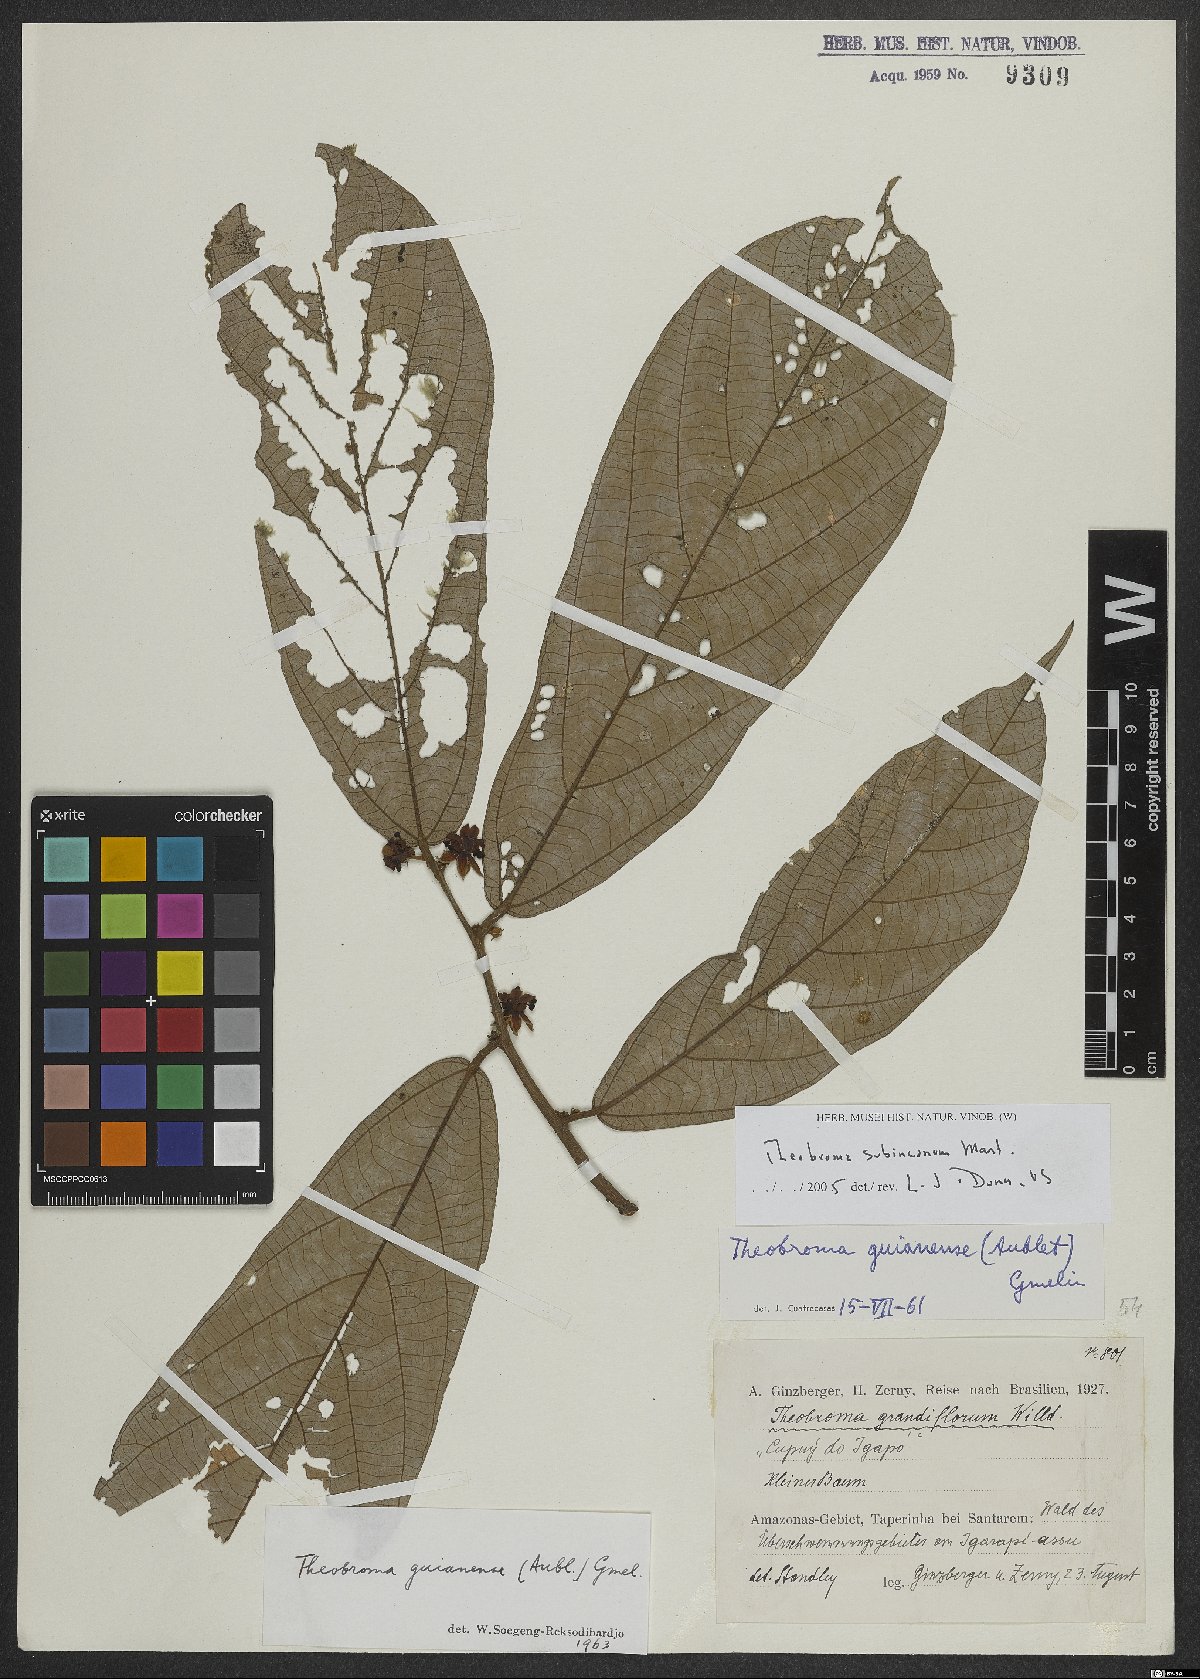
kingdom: Plantae
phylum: Tracheophyta
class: Magnoliopsida
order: Malvales
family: Malvaceae
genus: Theobroma
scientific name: Theobroma subincanum
